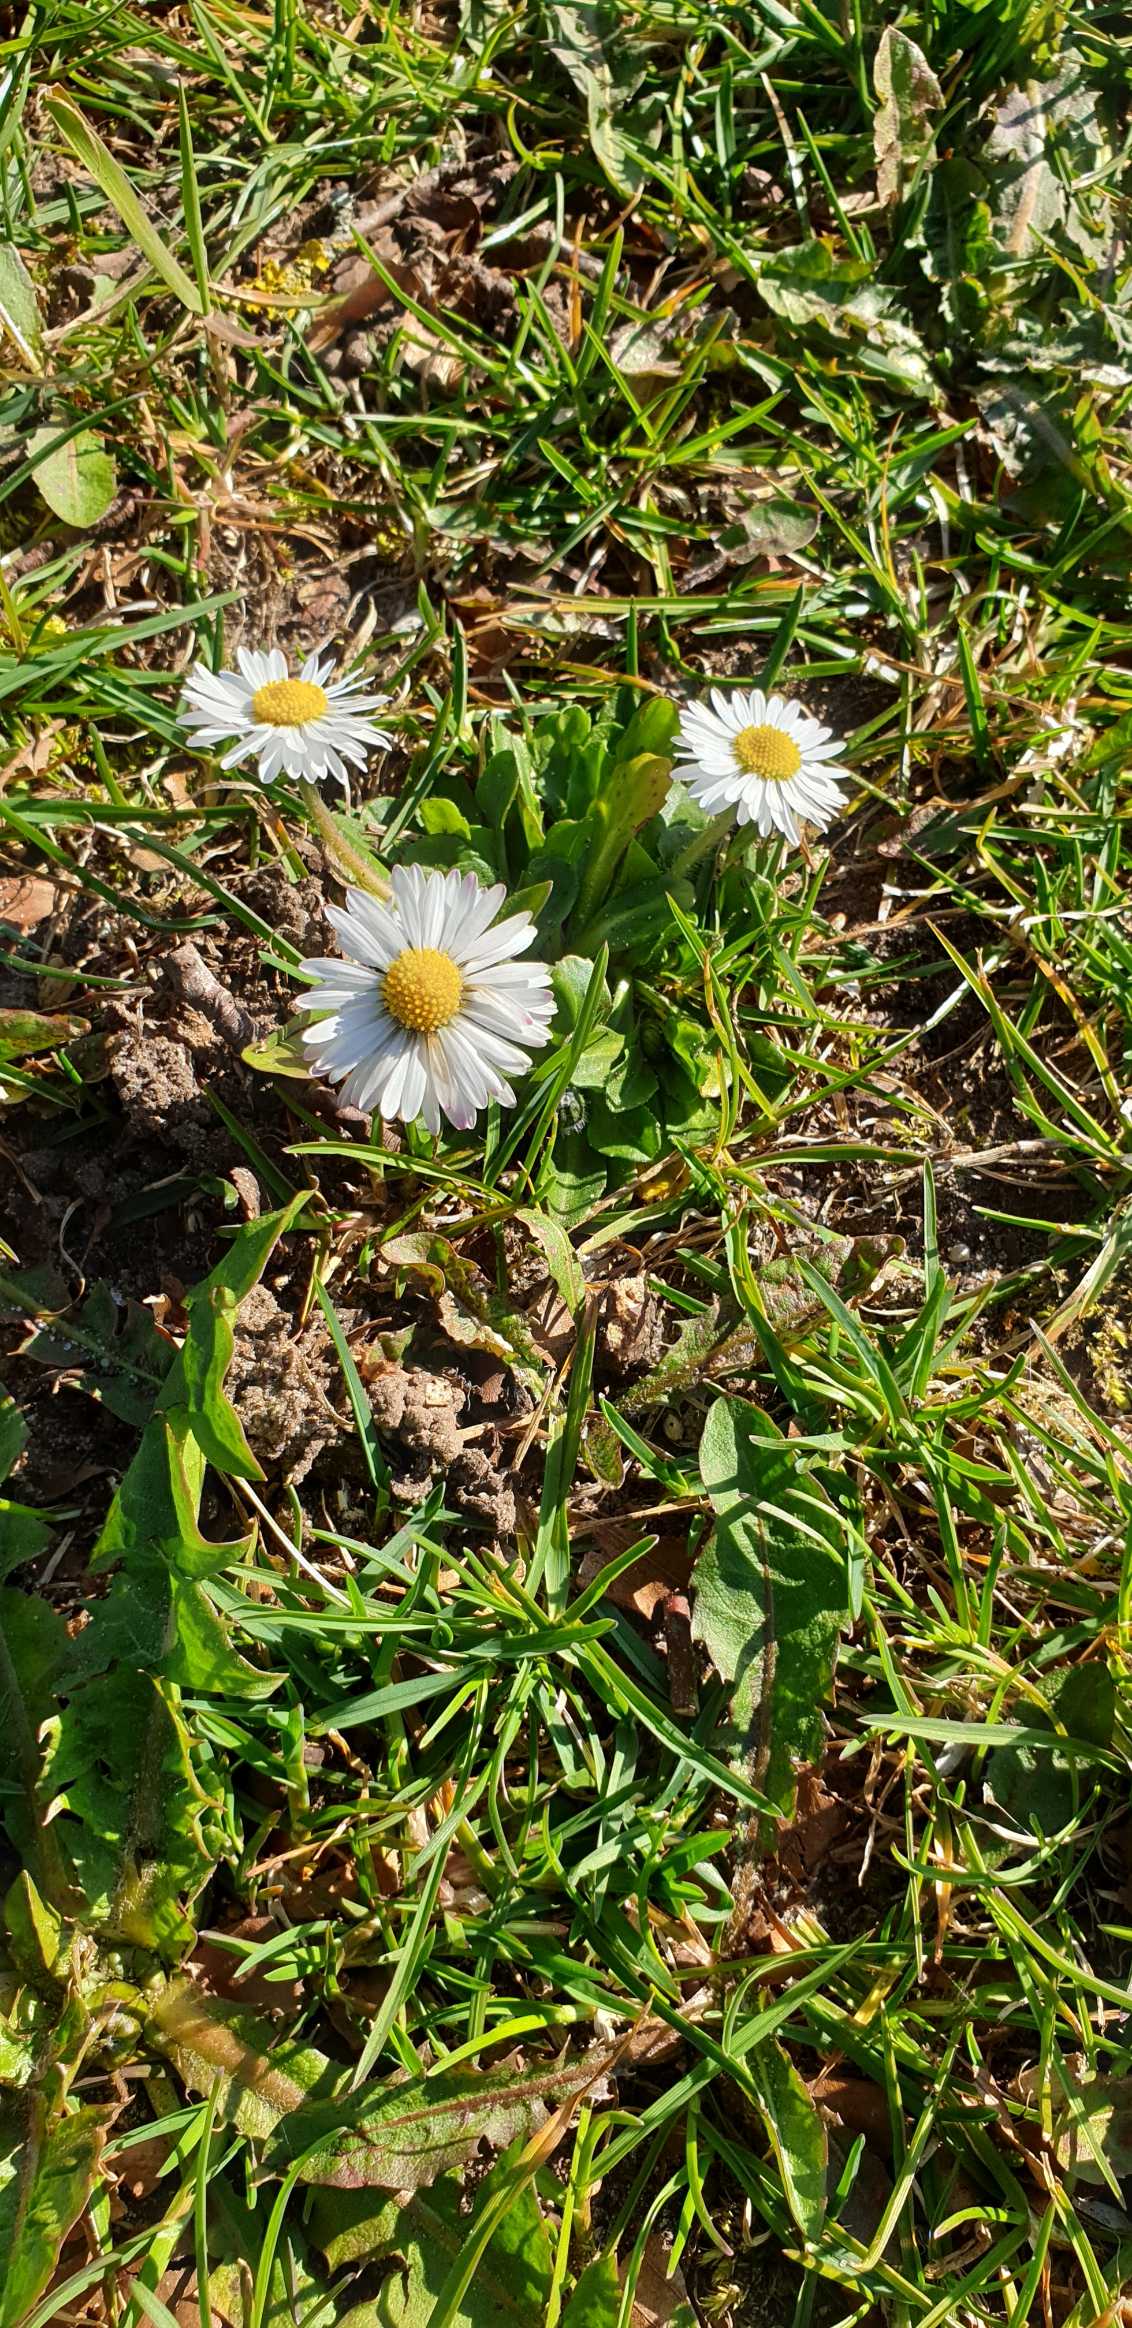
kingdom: Plantae
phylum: Tracheophyta
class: Magnoliopsida
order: Asterales
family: Asteraceae
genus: Bellis
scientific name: Bellis perennis
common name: Tusindfryd
